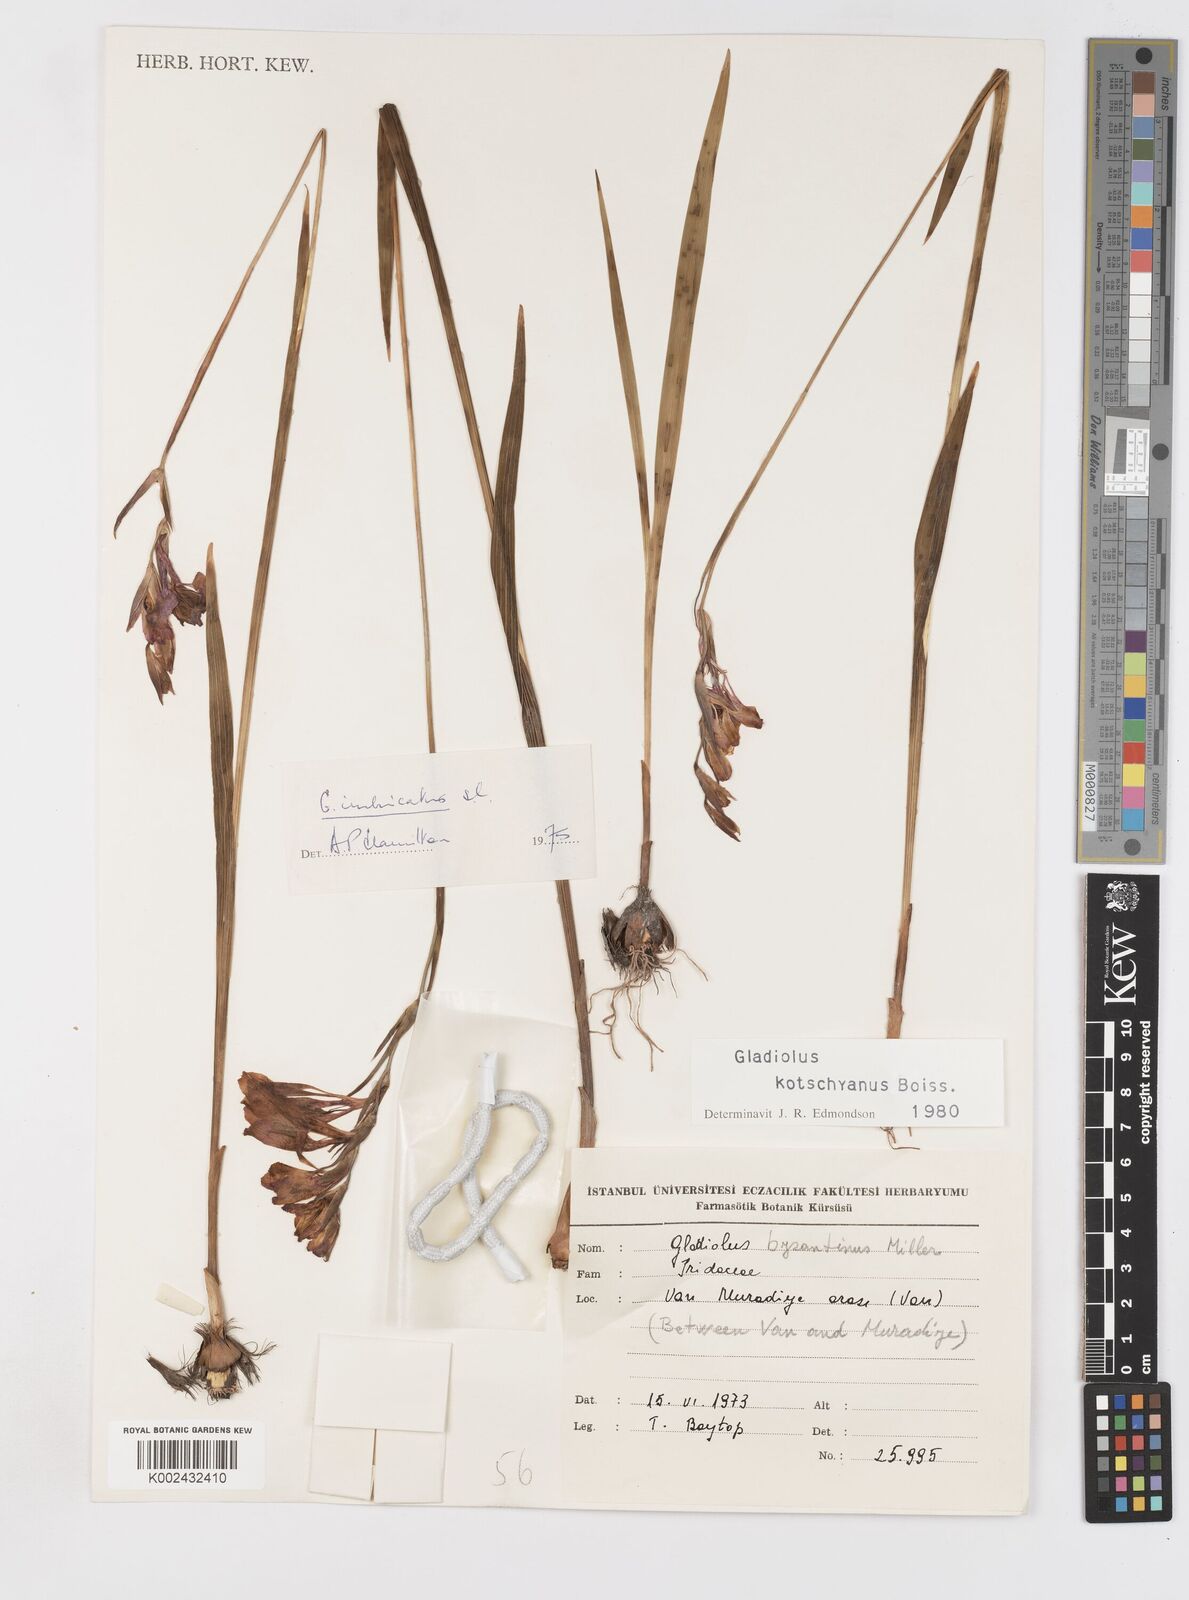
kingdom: Plantae
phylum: Tracheophyta
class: Liliopsida
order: Asparagales
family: Iridaceae
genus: Gladiolus
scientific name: Gladiolus kotschyanus
